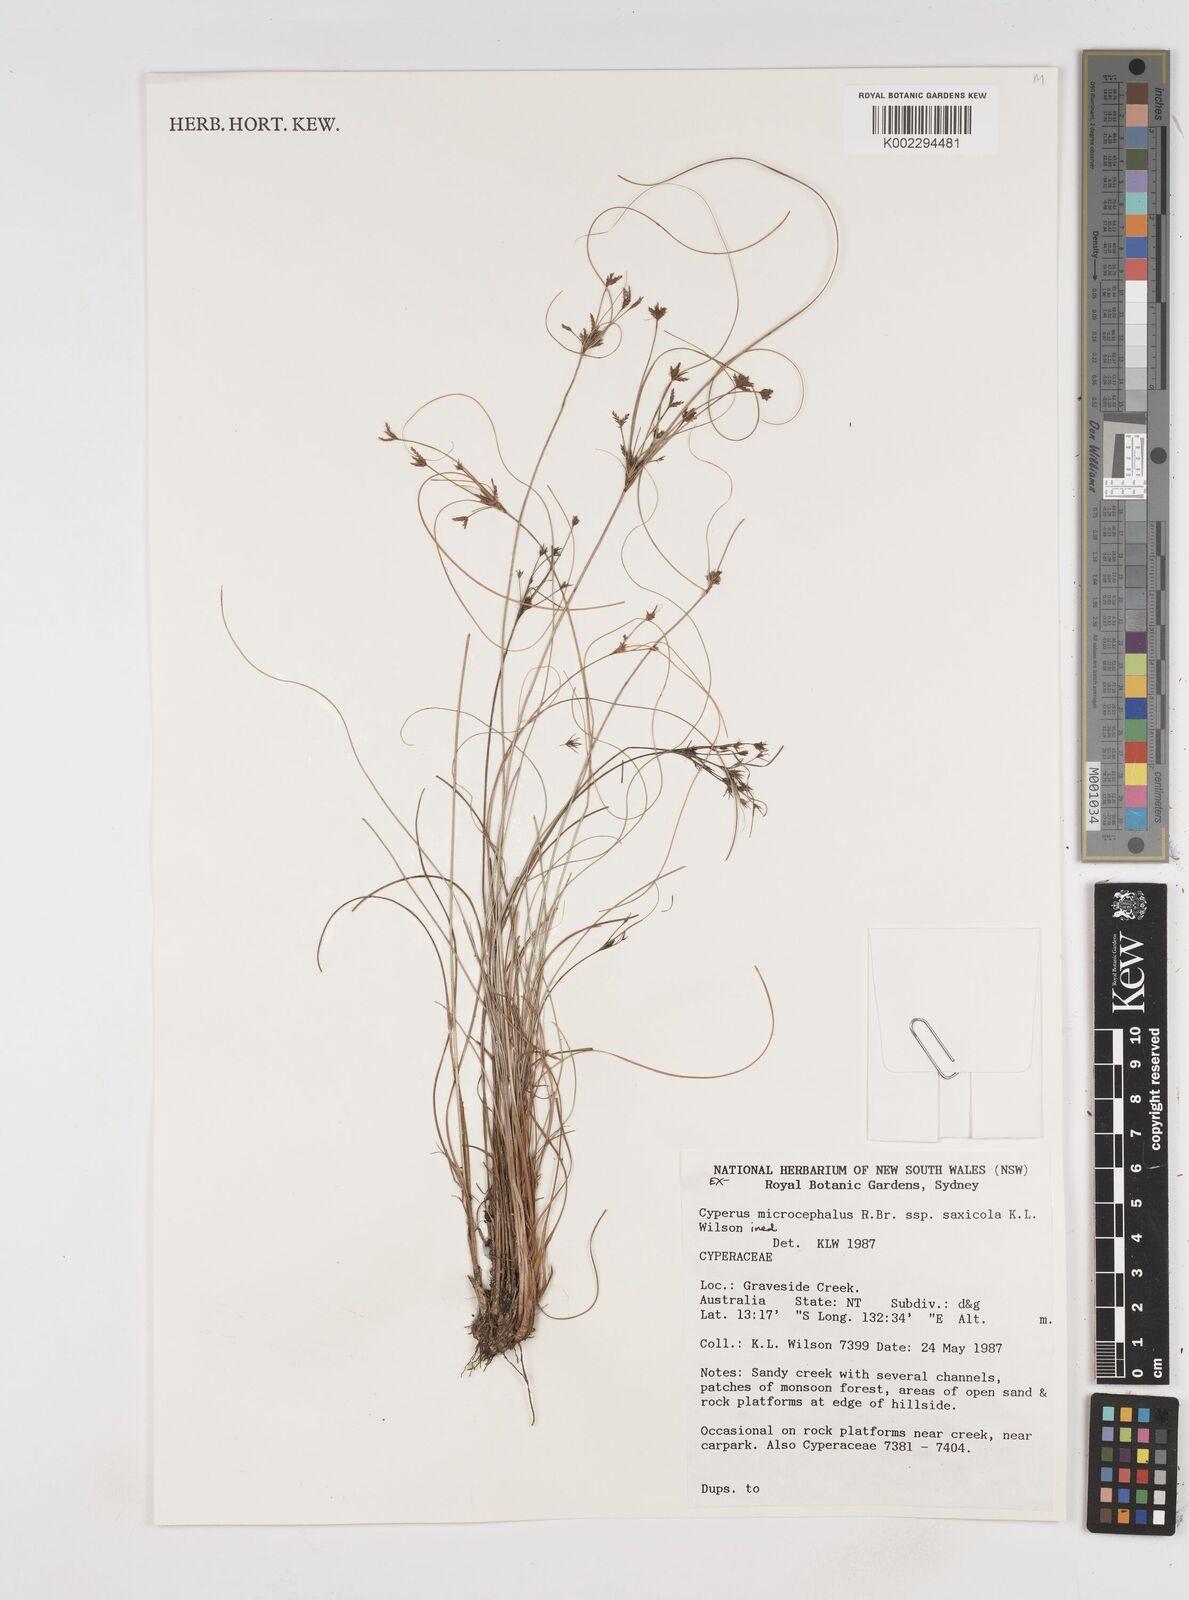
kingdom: Plantae
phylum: Tracheophyta
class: Liliopsida
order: Poales
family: Cyperaceae
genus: Cyperus
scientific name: Cyperus microcephalus
